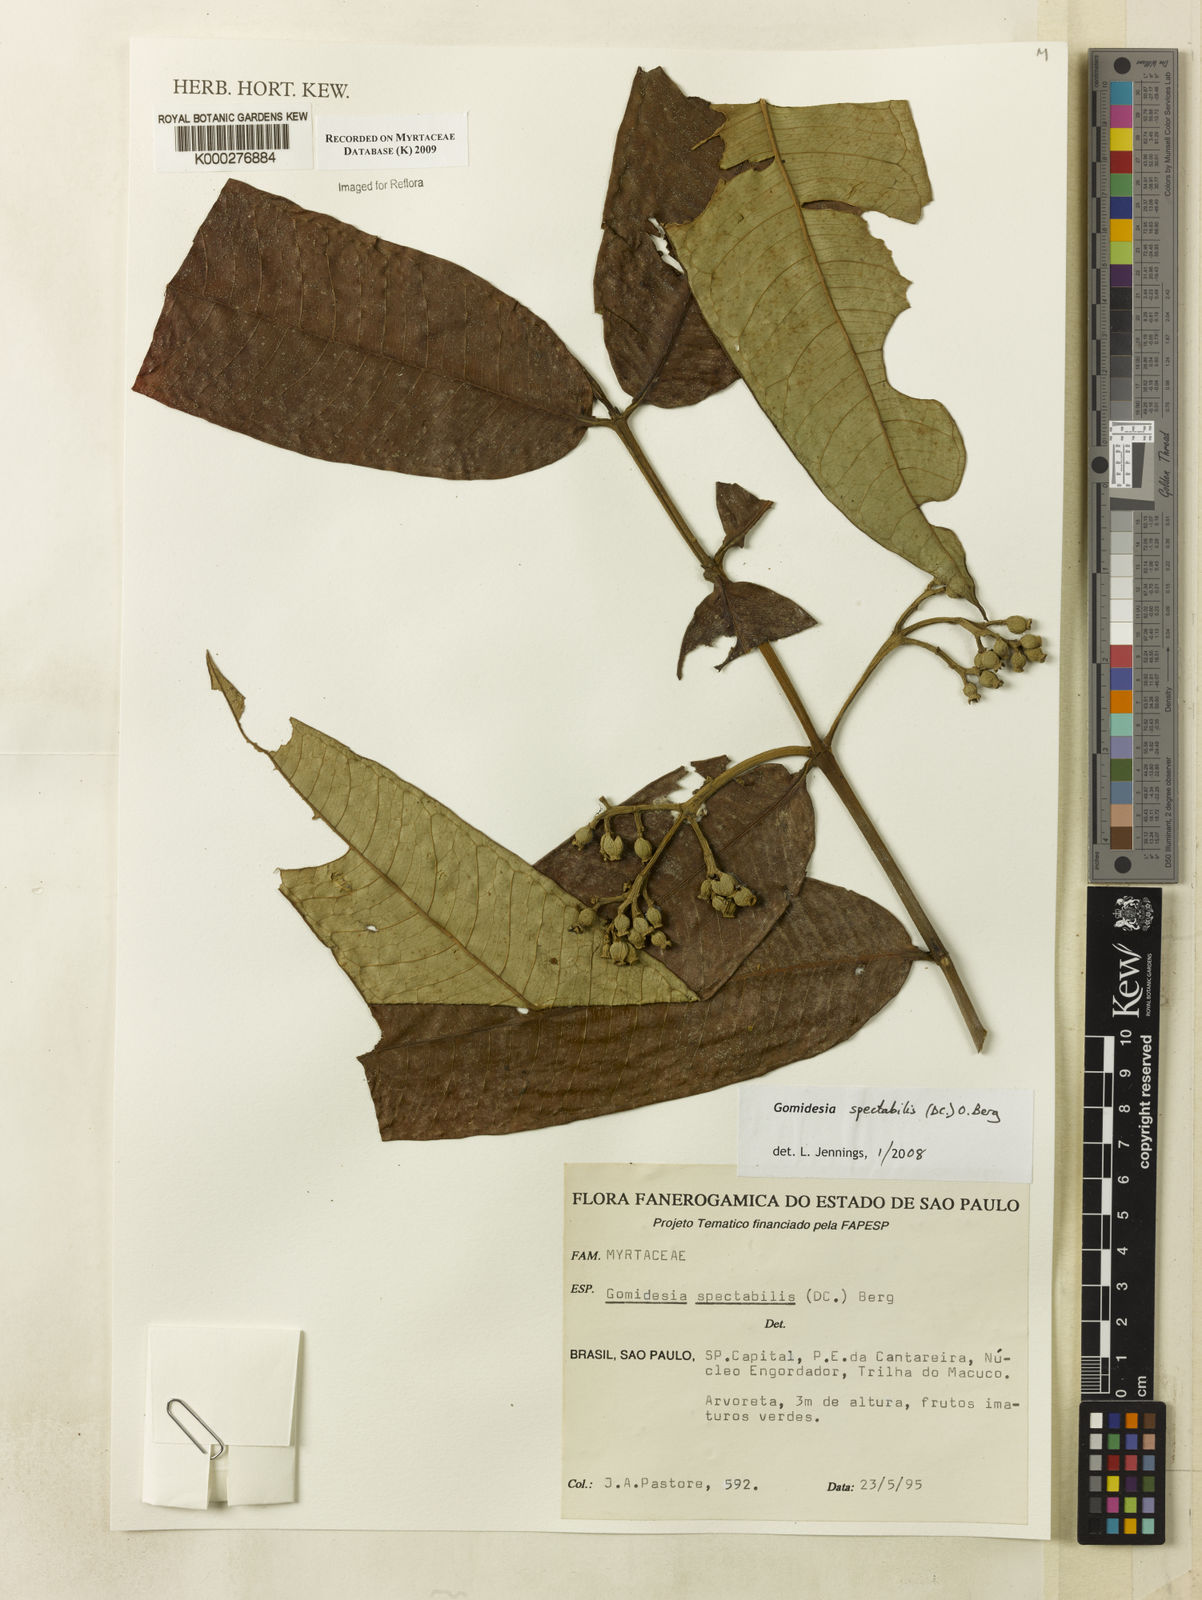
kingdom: Plantae
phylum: Tracheophyta
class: Magnoliopsida
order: Myrtales
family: Myrtaceae
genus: Myrcia
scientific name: Myrcia spectabilis
